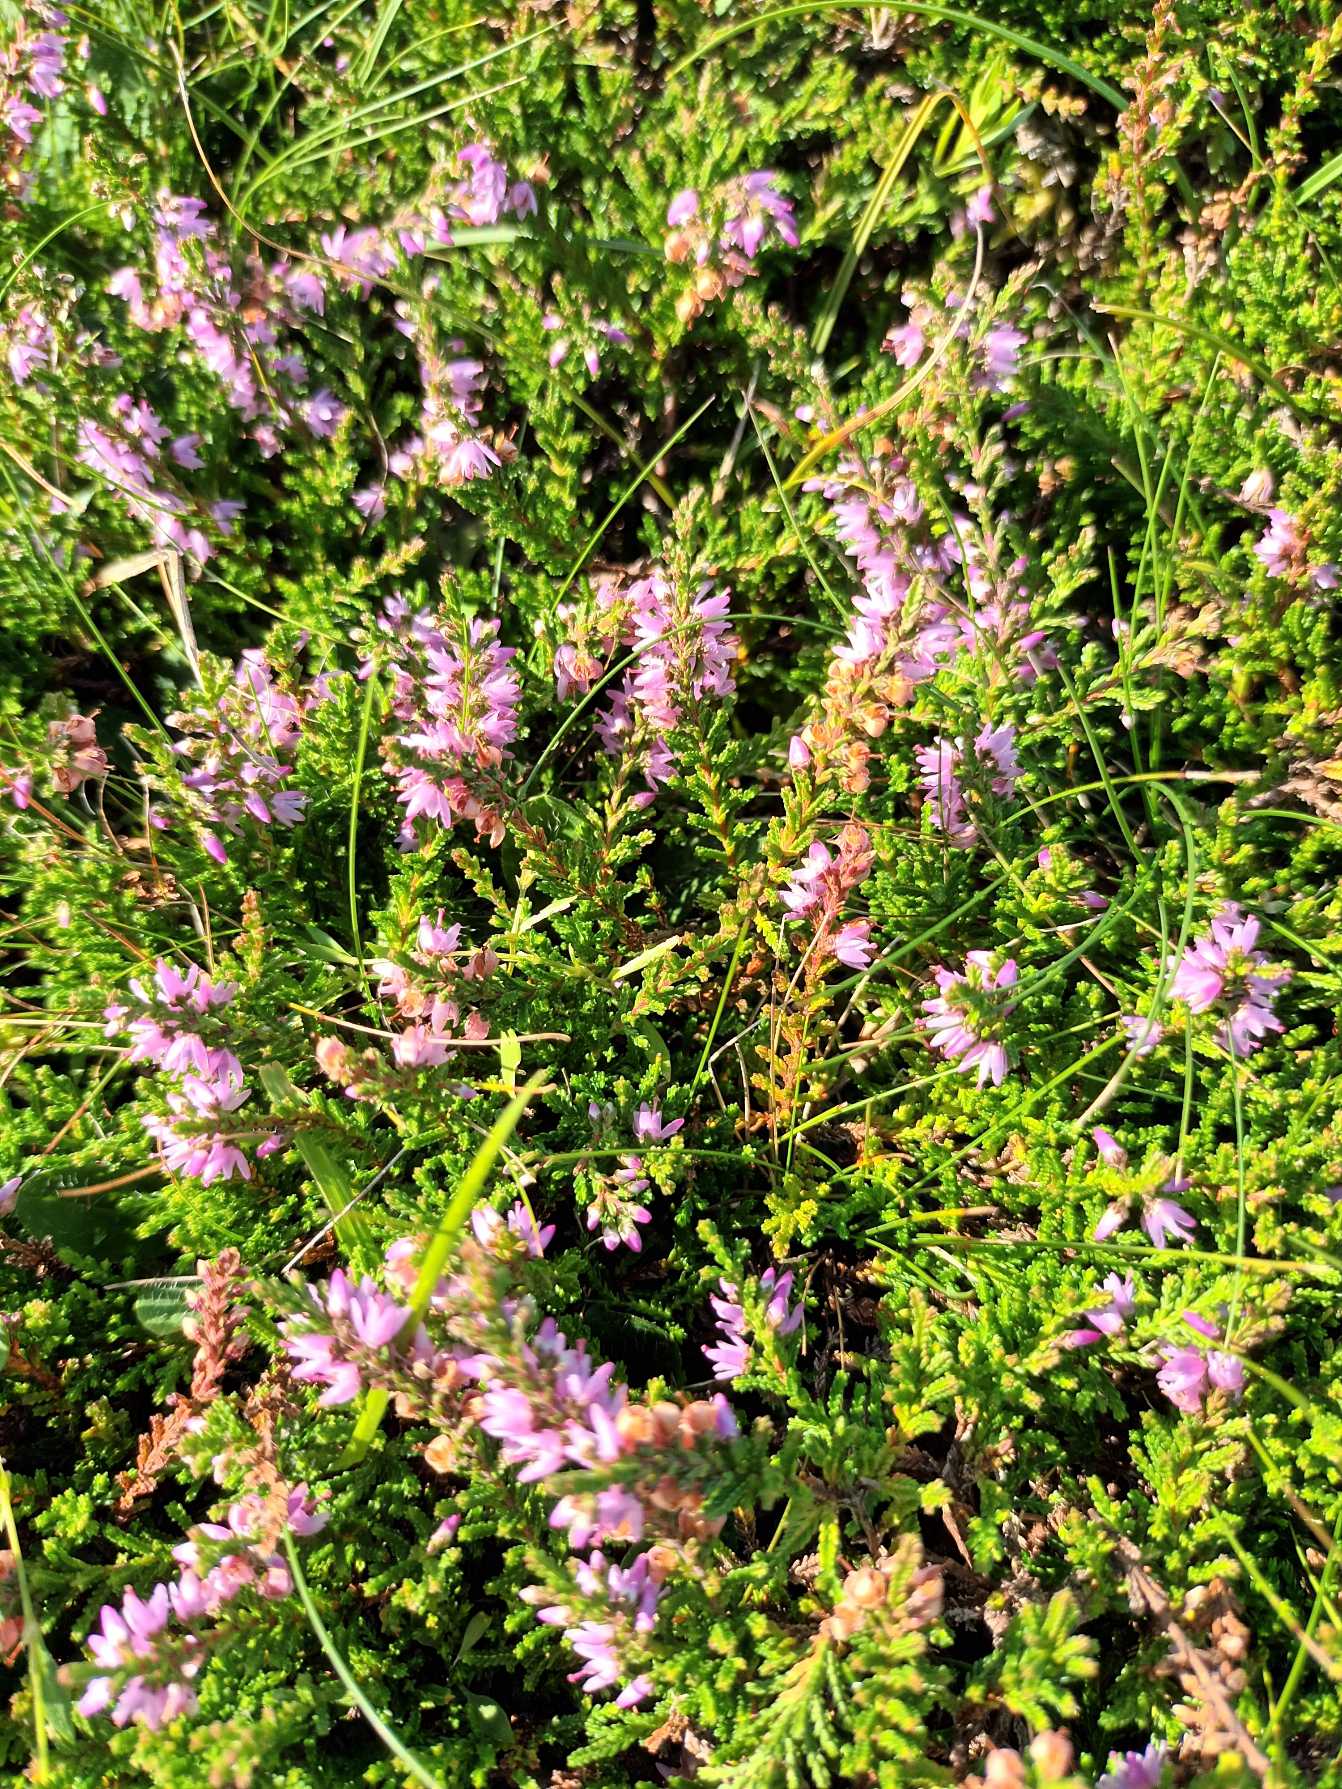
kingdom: Plantae
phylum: Tracheophyta
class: Magnoliopsida
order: Ericales
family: Ericaceae
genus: Calluna
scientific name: Calluna vulgaris
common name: Hedelyng
